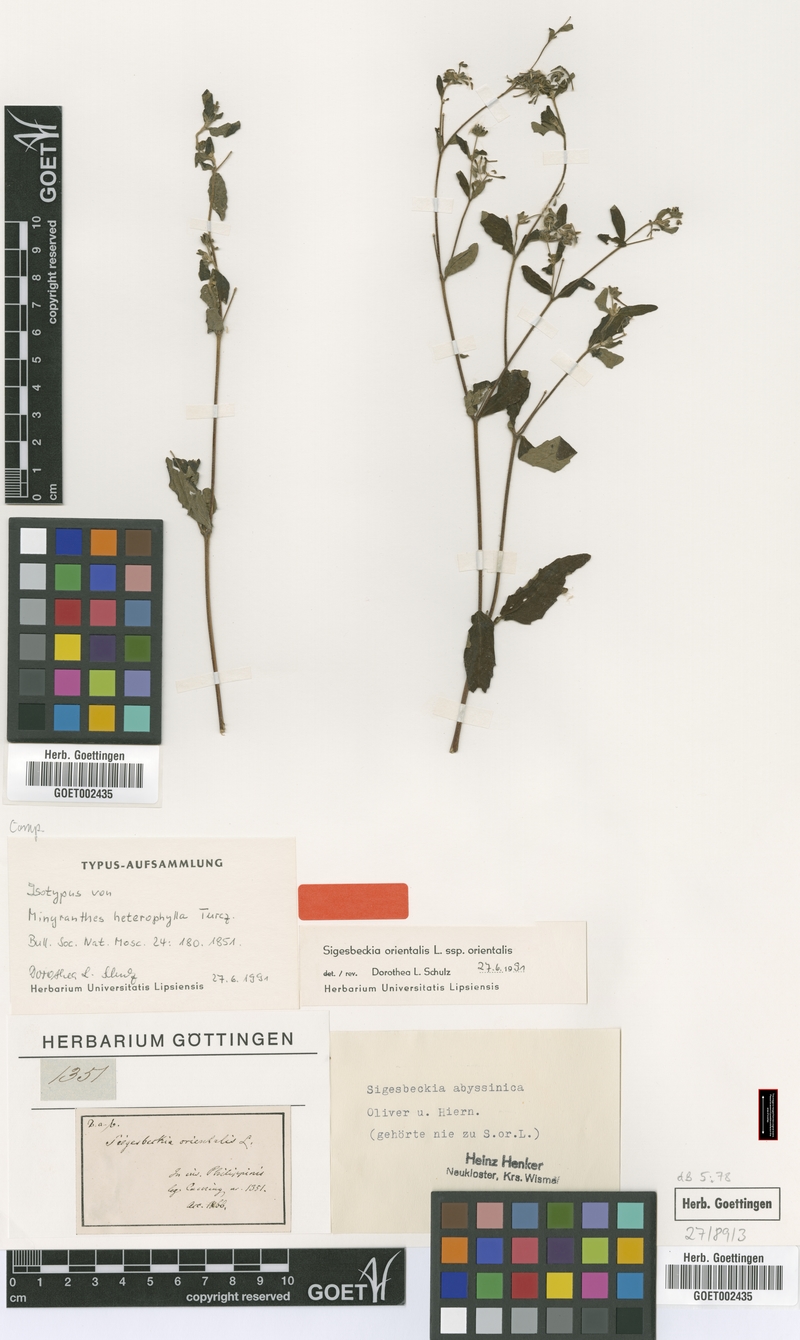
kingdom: Plantae
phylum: Tracheophyta
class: Magnoliopsida
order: Asterales
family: Asteraceae
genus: Sigesbeckia
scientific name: Sigesbeckia orientalis
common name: Eastern st paul's-wort
